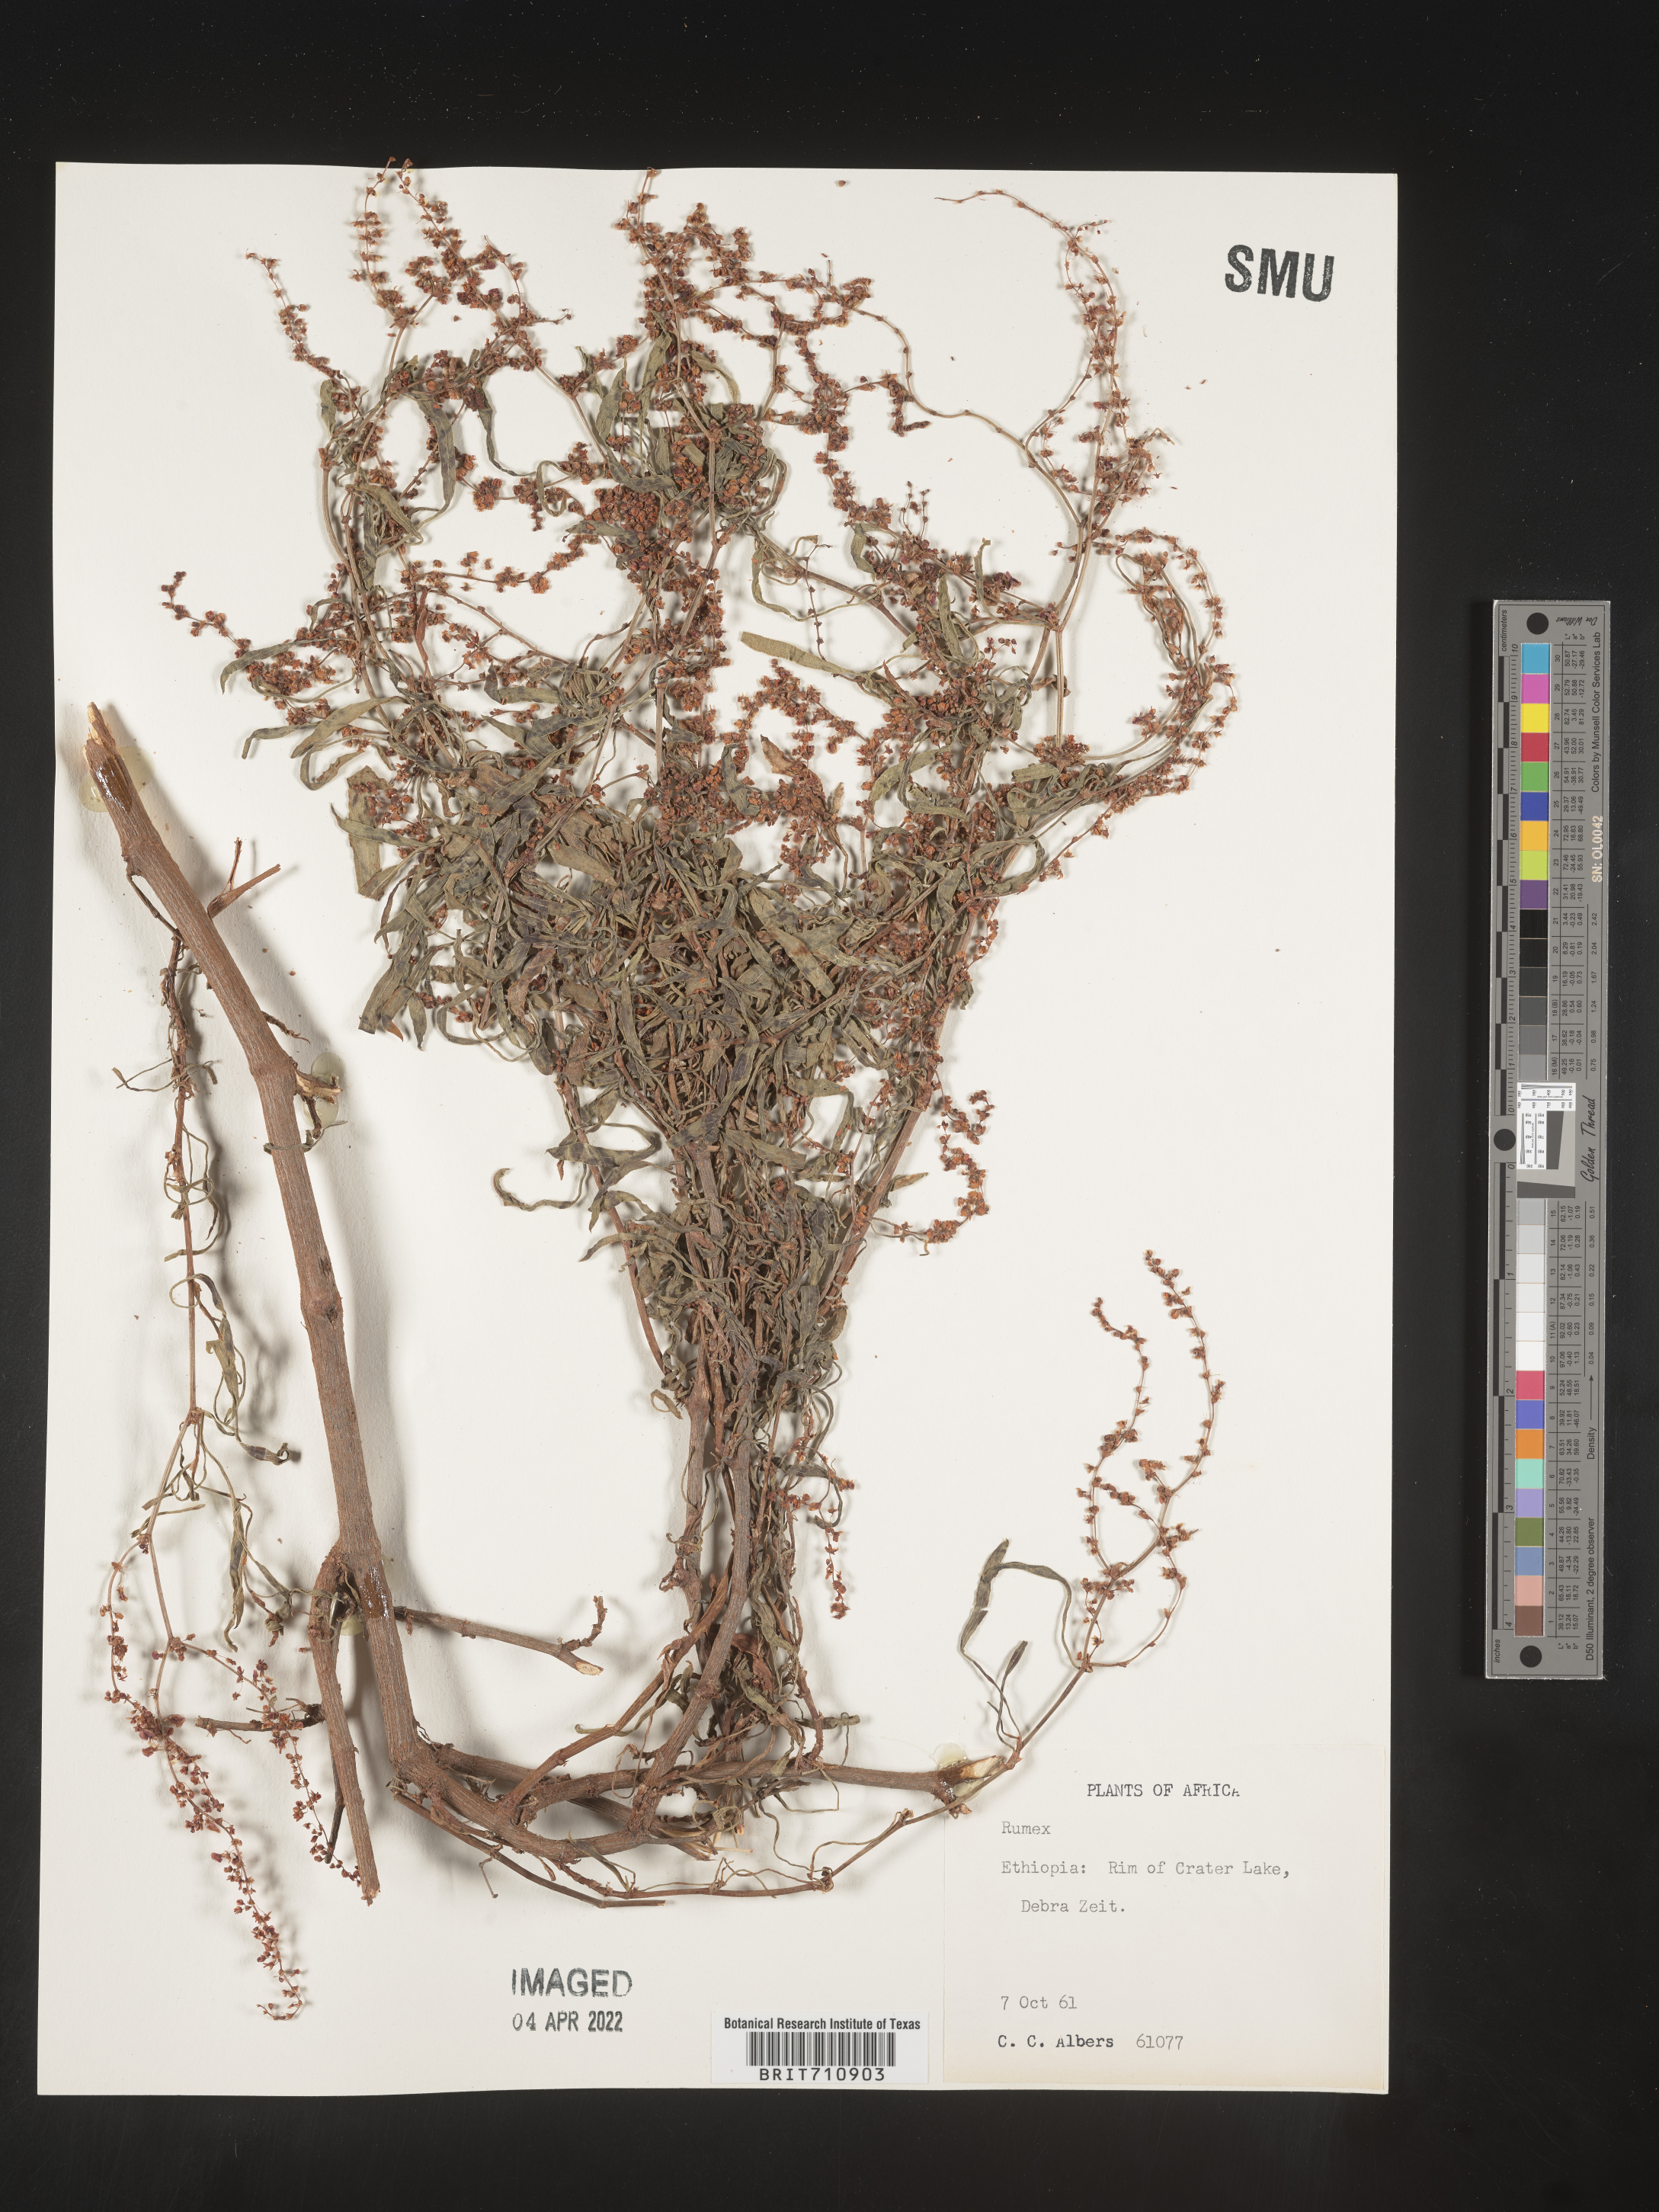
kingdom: Plantae
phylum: Tracheophyta
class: Magnoliopsida
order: Caryophyllales
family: Polygonaceae
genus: Rumex
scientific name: Rumex
